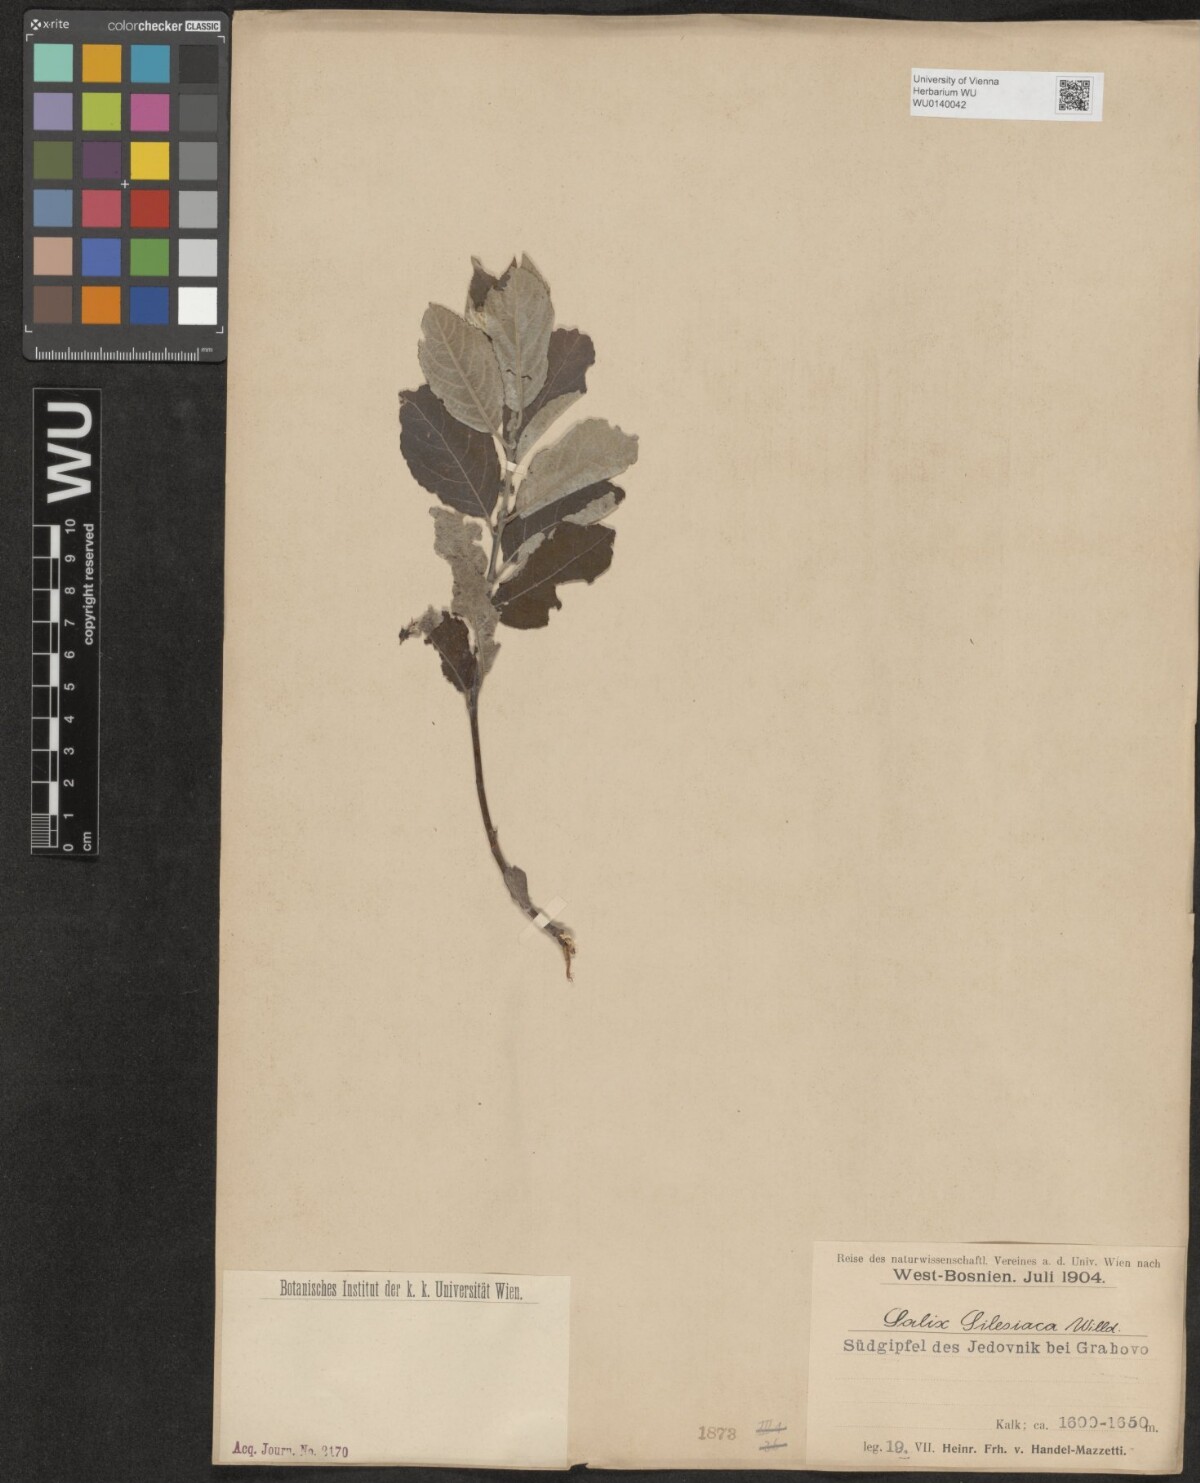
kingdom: Plantae
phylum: Tracheophyta
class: Magnoliopsida
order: Malpighiales
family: Salicaceae
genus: Salix
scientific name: Salix silesiaca
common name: Silesian willow
